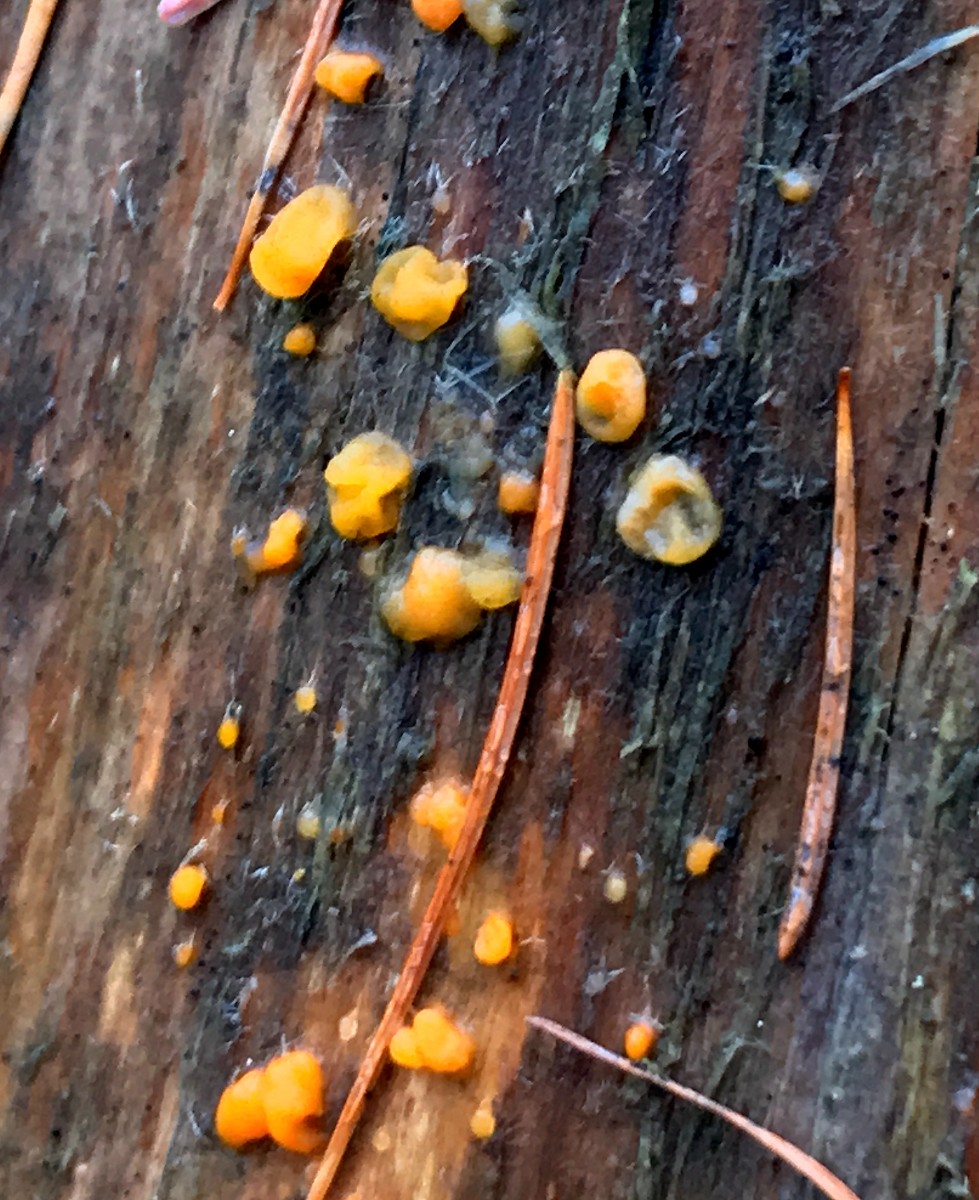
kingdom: Fungi
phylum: Basidiomycota
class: Dacrymycetes
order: Dacrymycetales
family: Dacrymycetaceae
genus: Dacrymyces
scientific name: Dacrymyces stillatus
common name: almindelig tåresvamp
